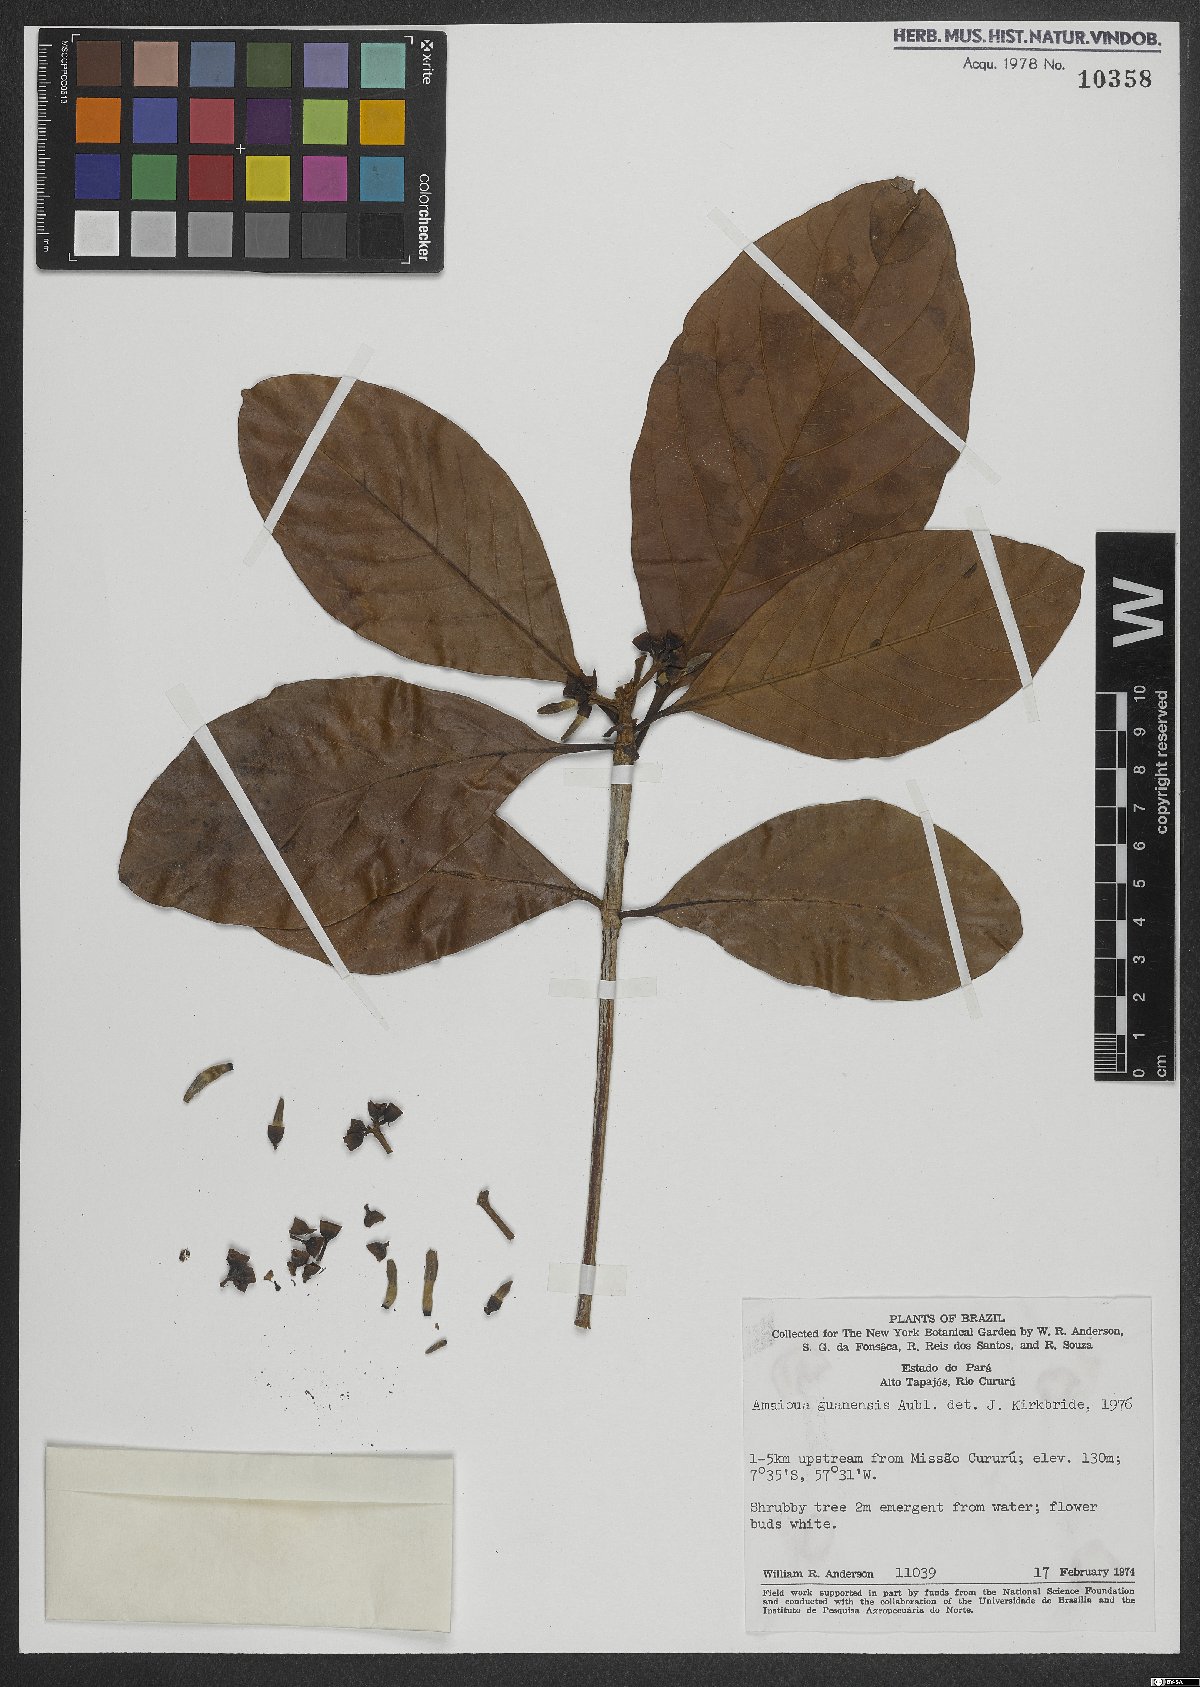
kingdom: Plantae
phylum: Tracheophyta
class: Magnoliopsida
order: Gentianales
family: Rubiaceae
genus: Amaioua
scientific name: Amaioua guianensis
